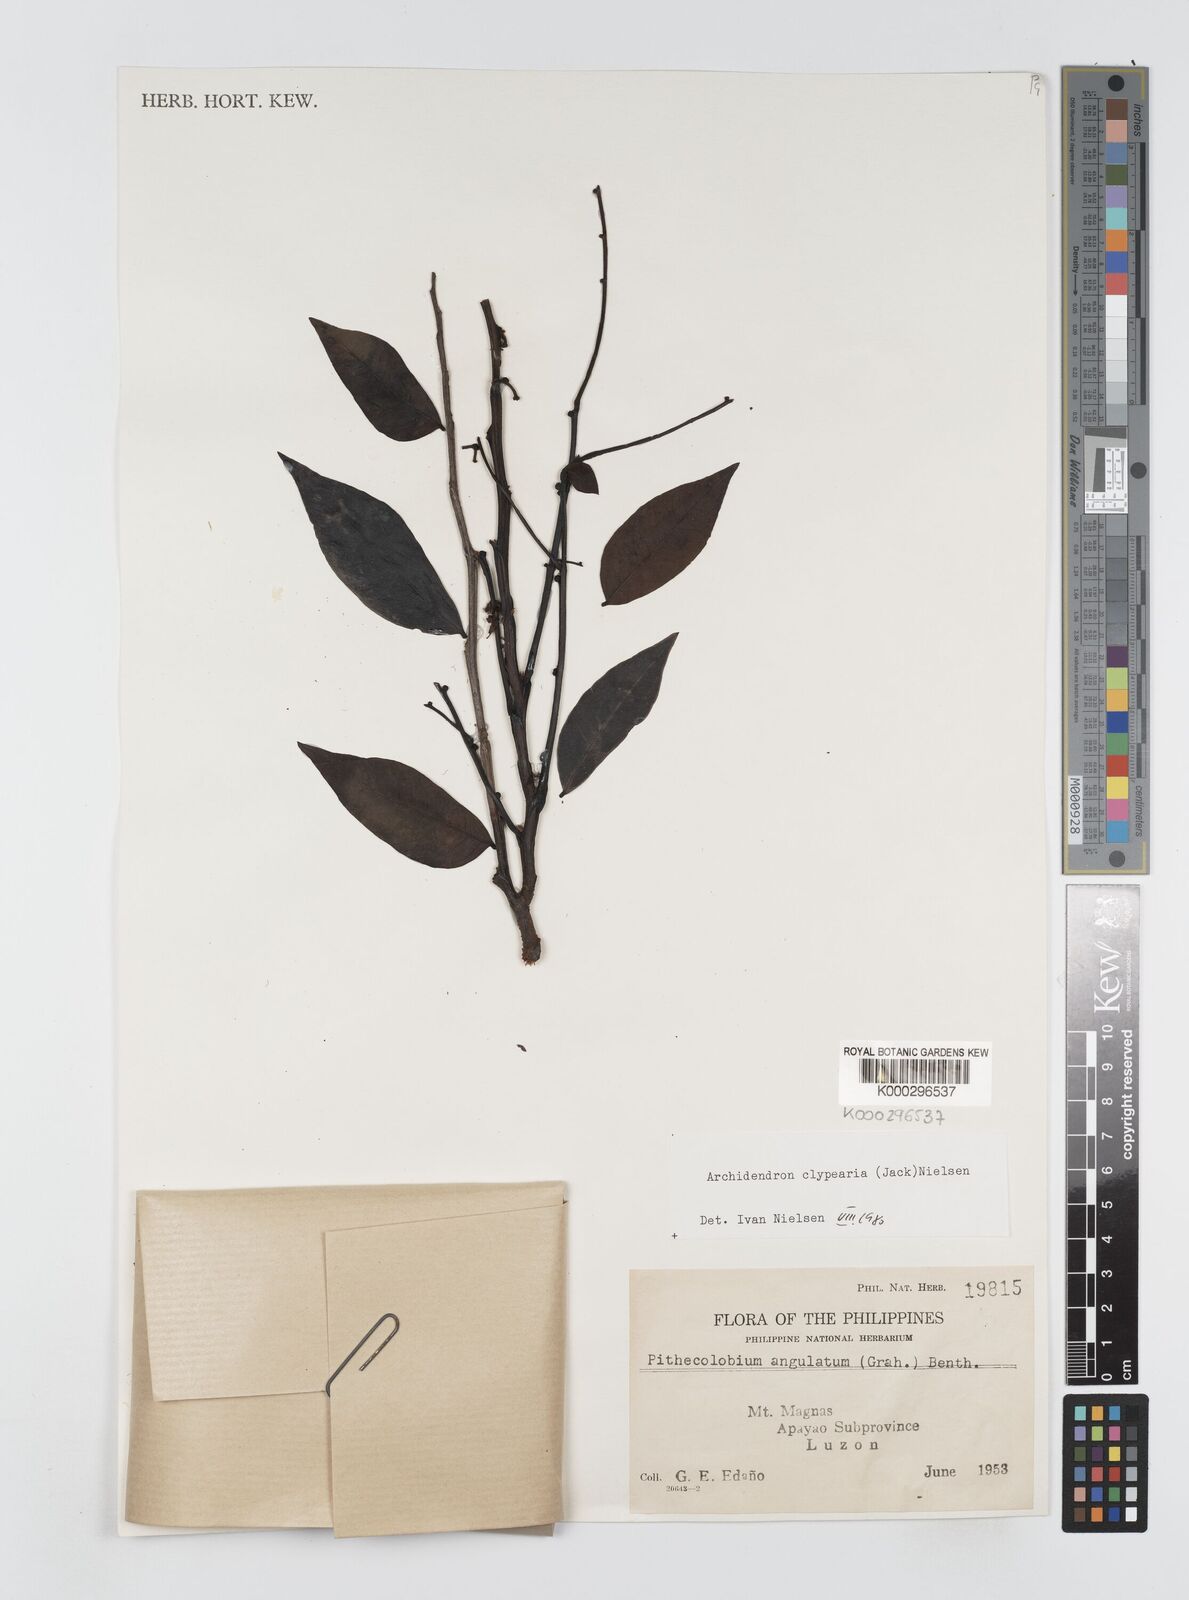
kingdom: Plantae
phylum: Tracheophyta
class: Magnoliopsida
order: Fabales
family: Fabaceae
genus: Archidendron
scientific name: Archidendron clypearia
